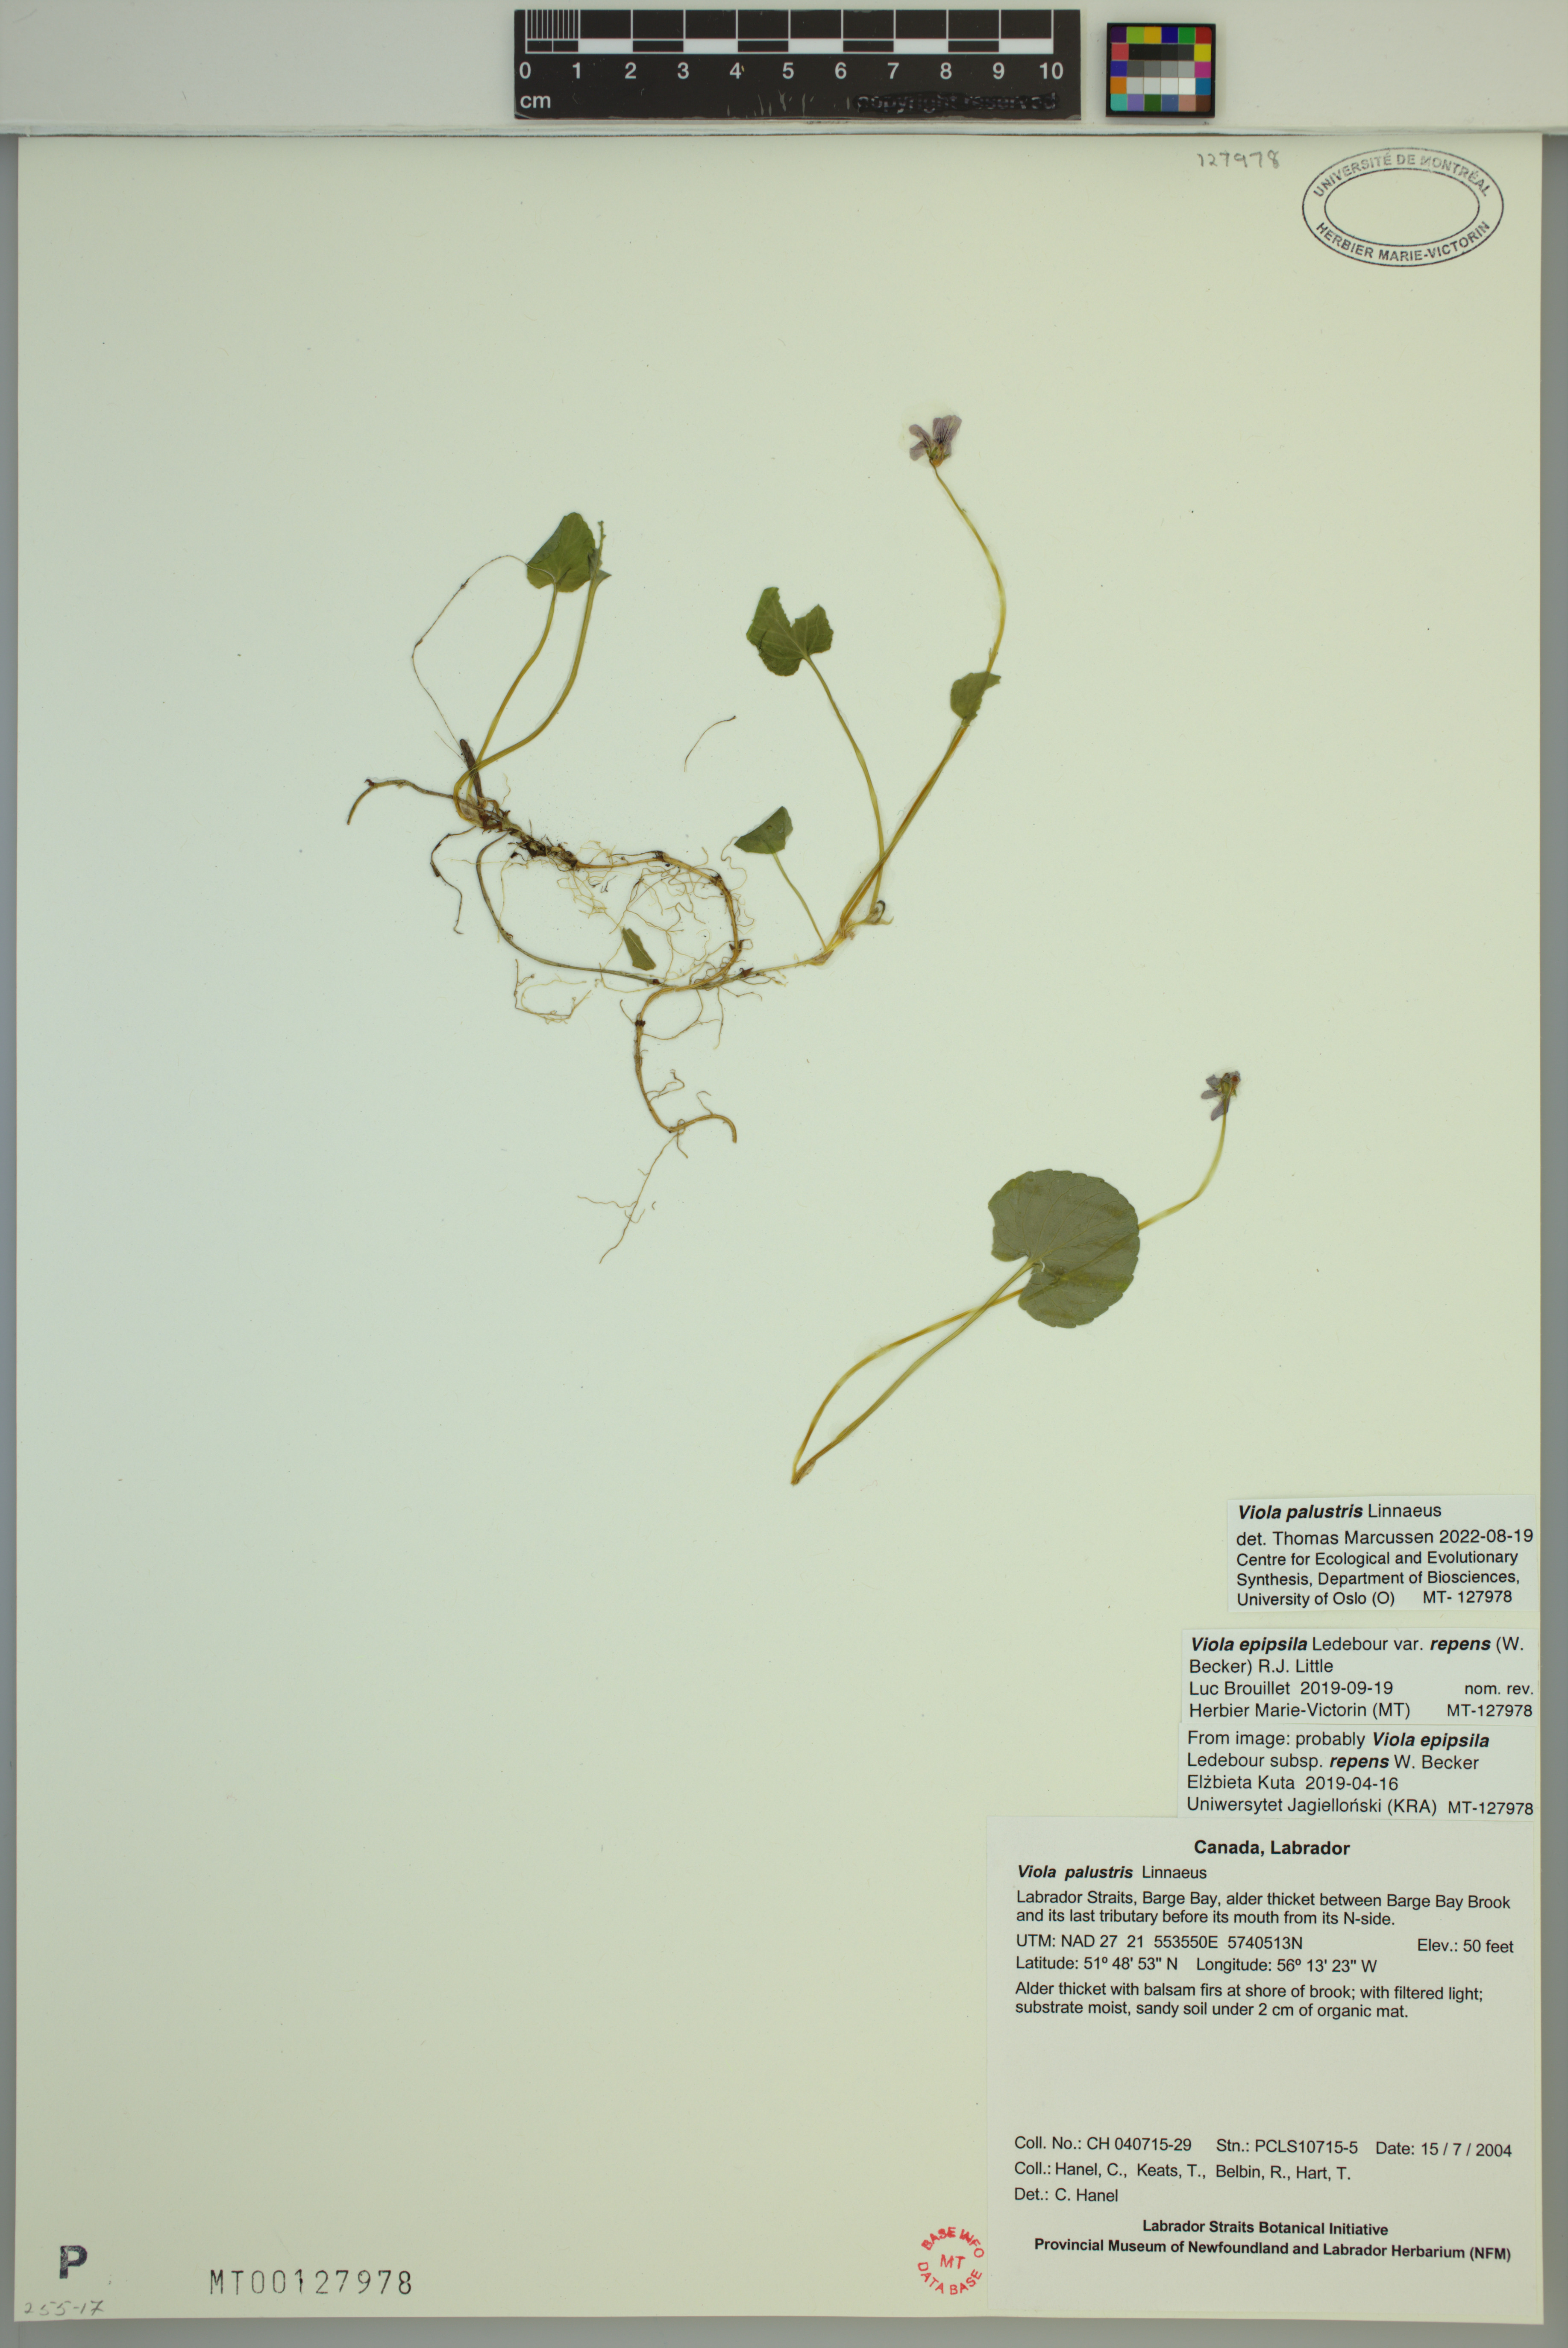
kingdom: Plantae
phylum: Tracheophyta
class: Magnoliopsida
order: Malpighiales
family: Violaceae
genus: Viola
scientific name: Viola palustris
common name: Marsh violet
